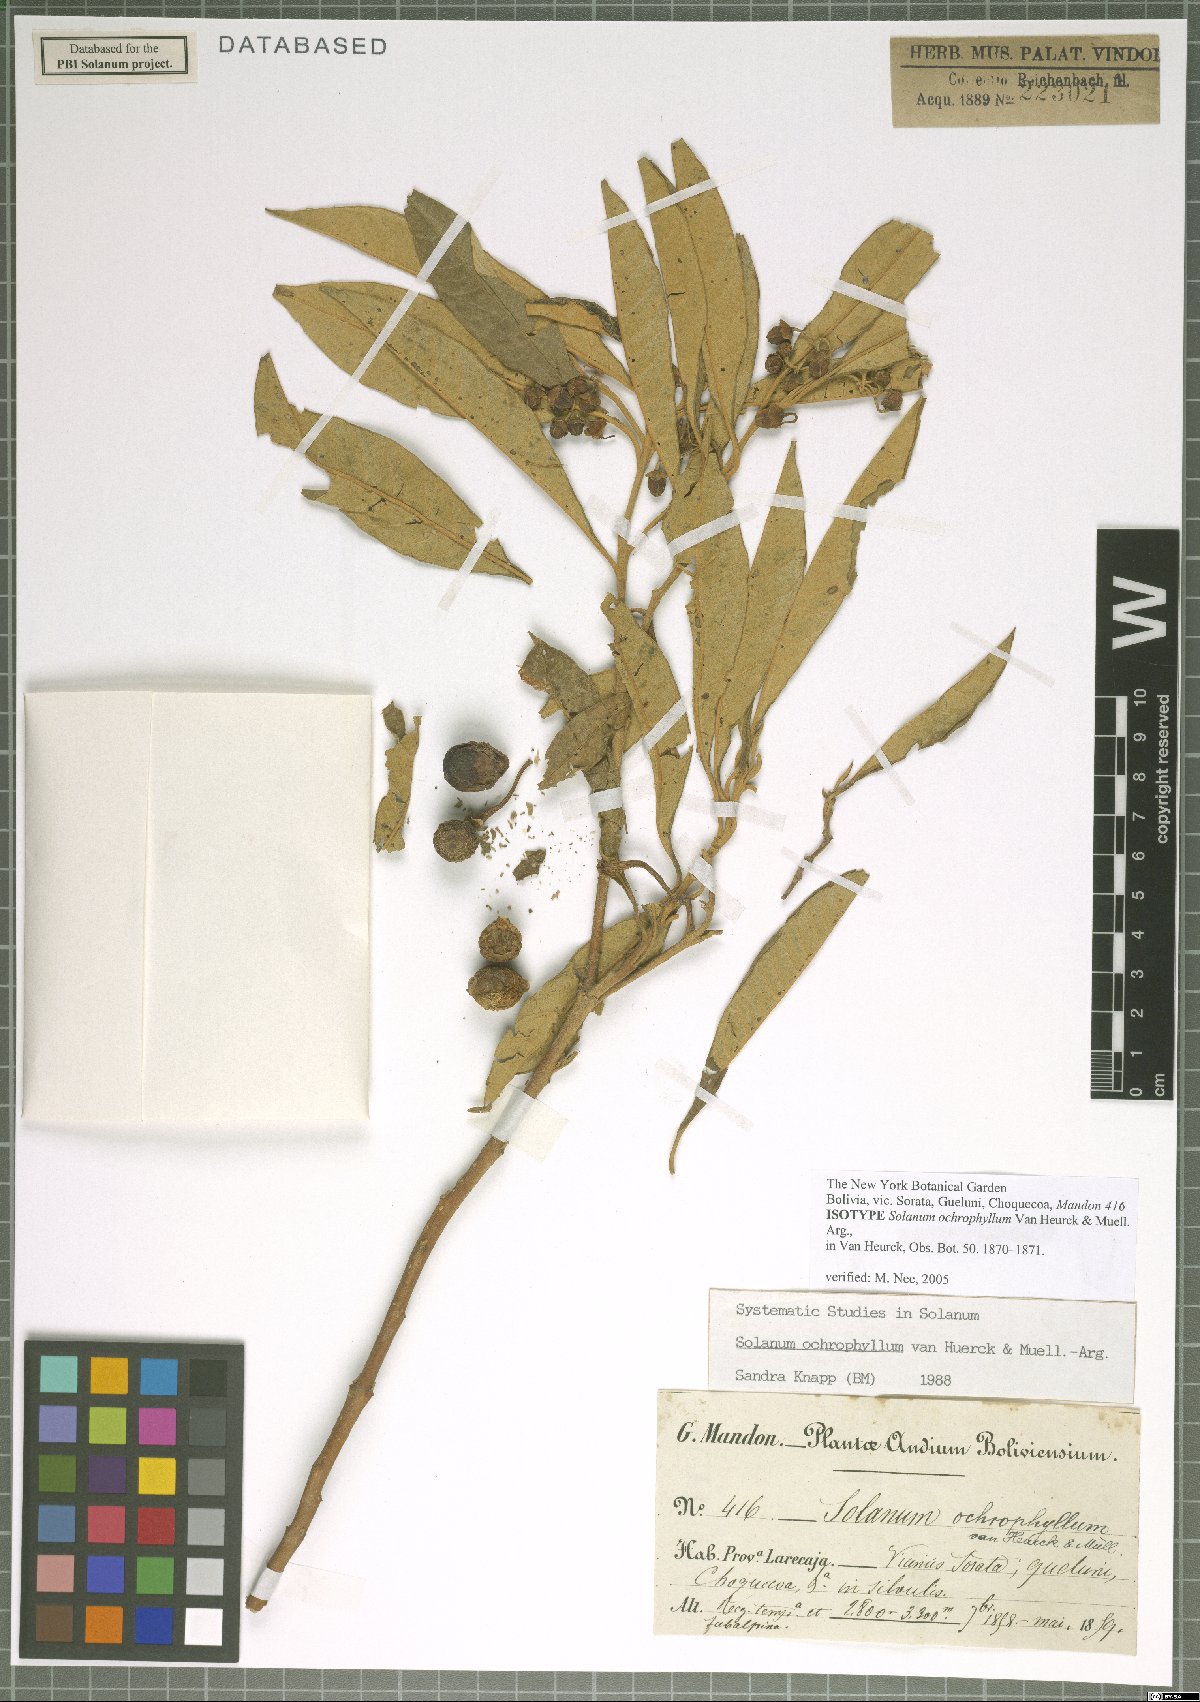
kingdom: Plantae
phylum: Tracheophyta
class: Magnoliopsida
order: Solanales
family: Solanaceae
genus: Solanum
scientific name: Solanum ochrophyllum
